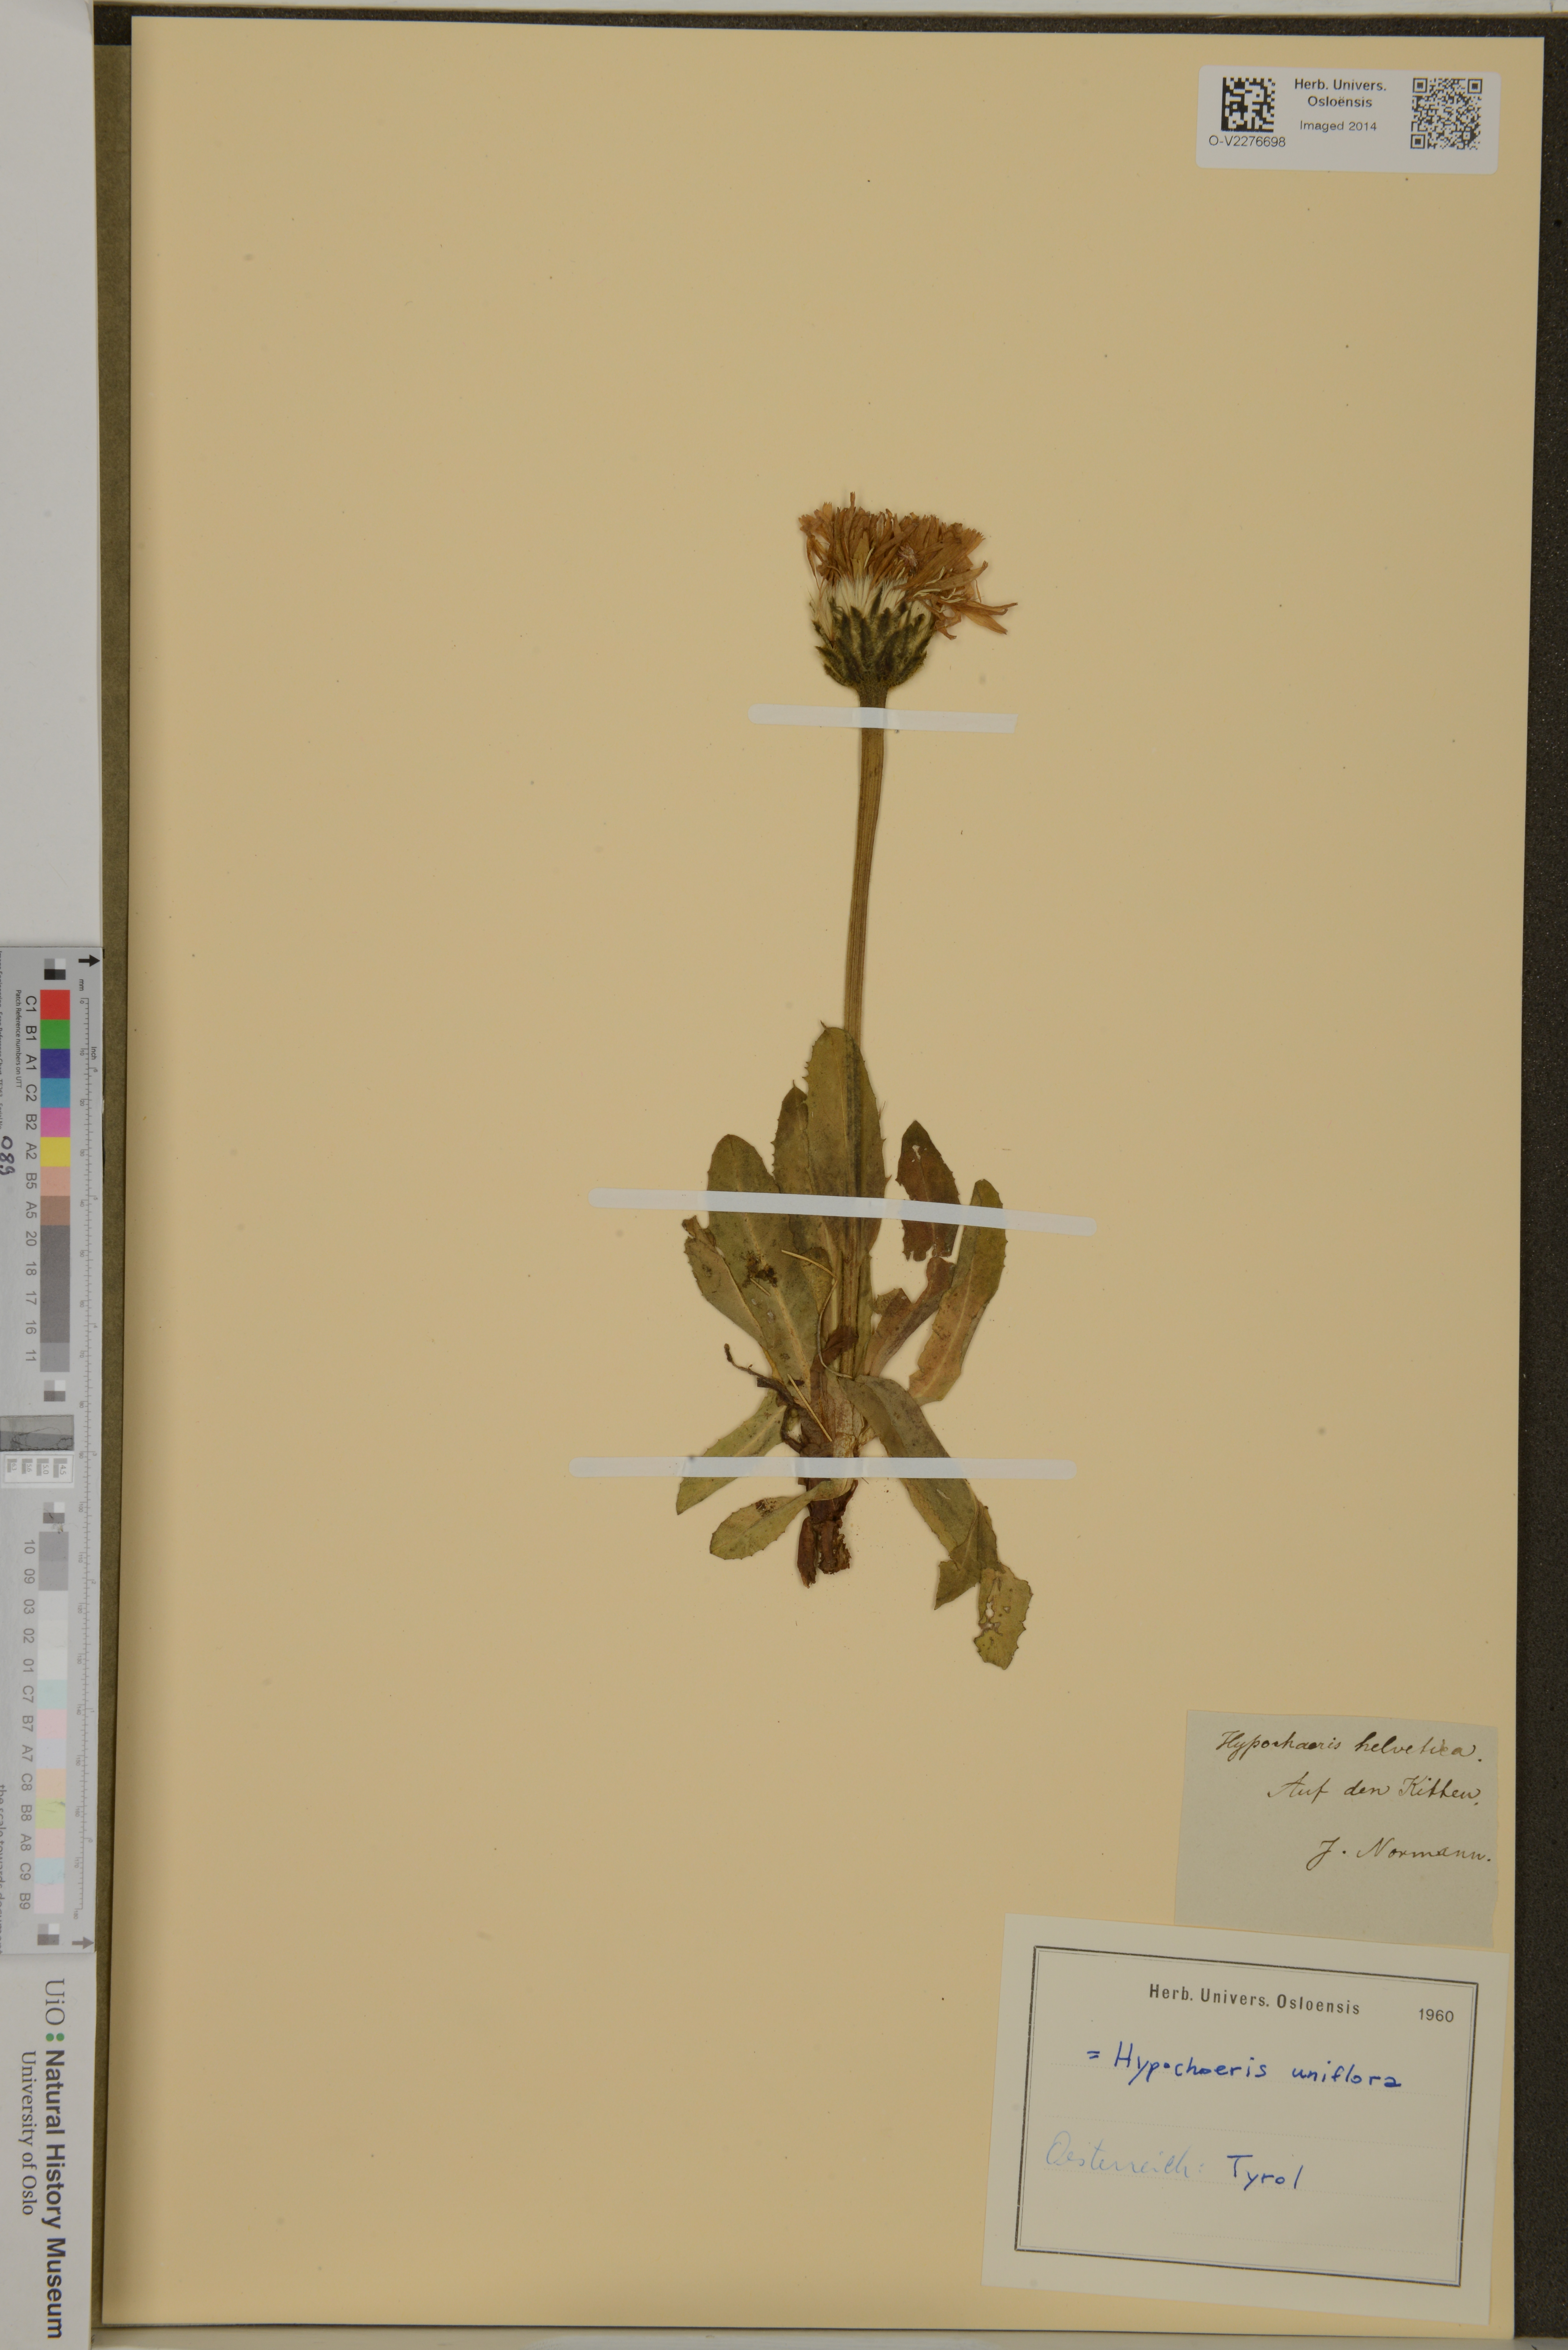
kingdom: Plantae
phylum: Tracheophyta
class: Magnoliopsida
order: Asterales
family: Asteraceae
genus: Trommsdorffia
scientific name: Trommsdorffia uniflora
